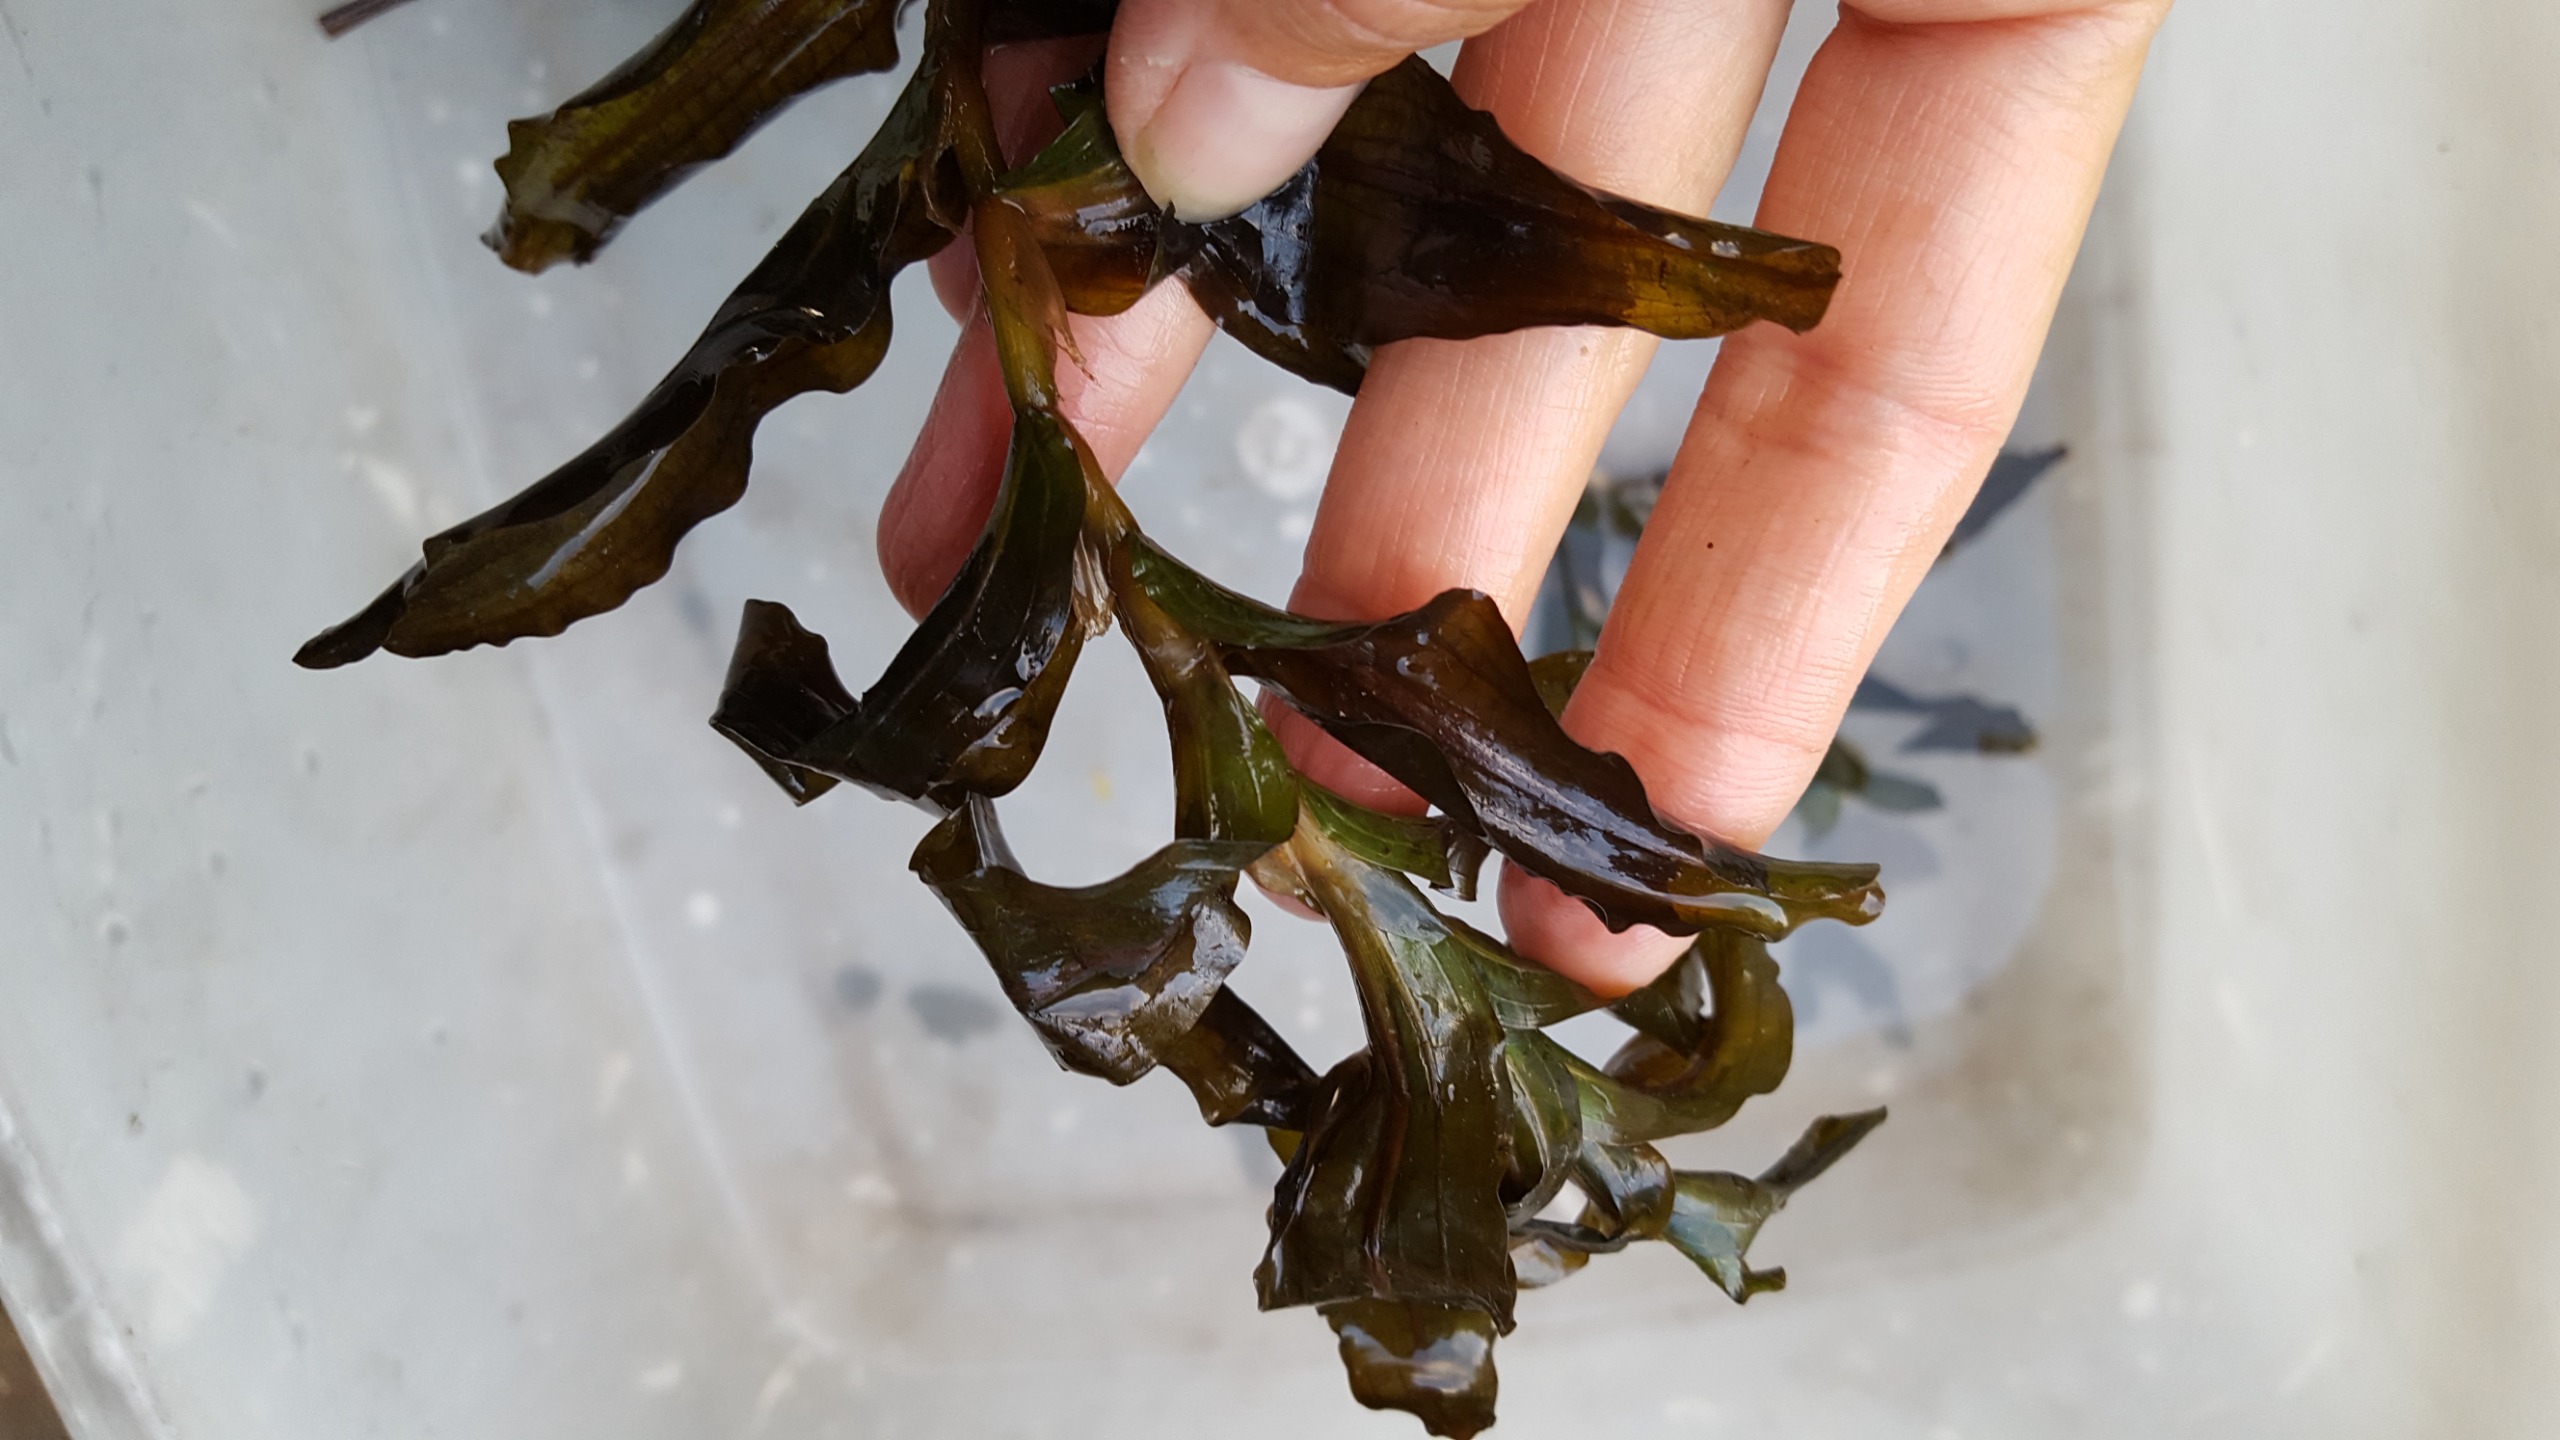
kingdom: Plantae
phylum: Tracheophyta
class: Liliopsida
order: Alismatales
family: Potamogetonaceae
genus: Potamogeton
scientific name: Potamogeton
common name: Kruset vandaks × langbladet vandaks
